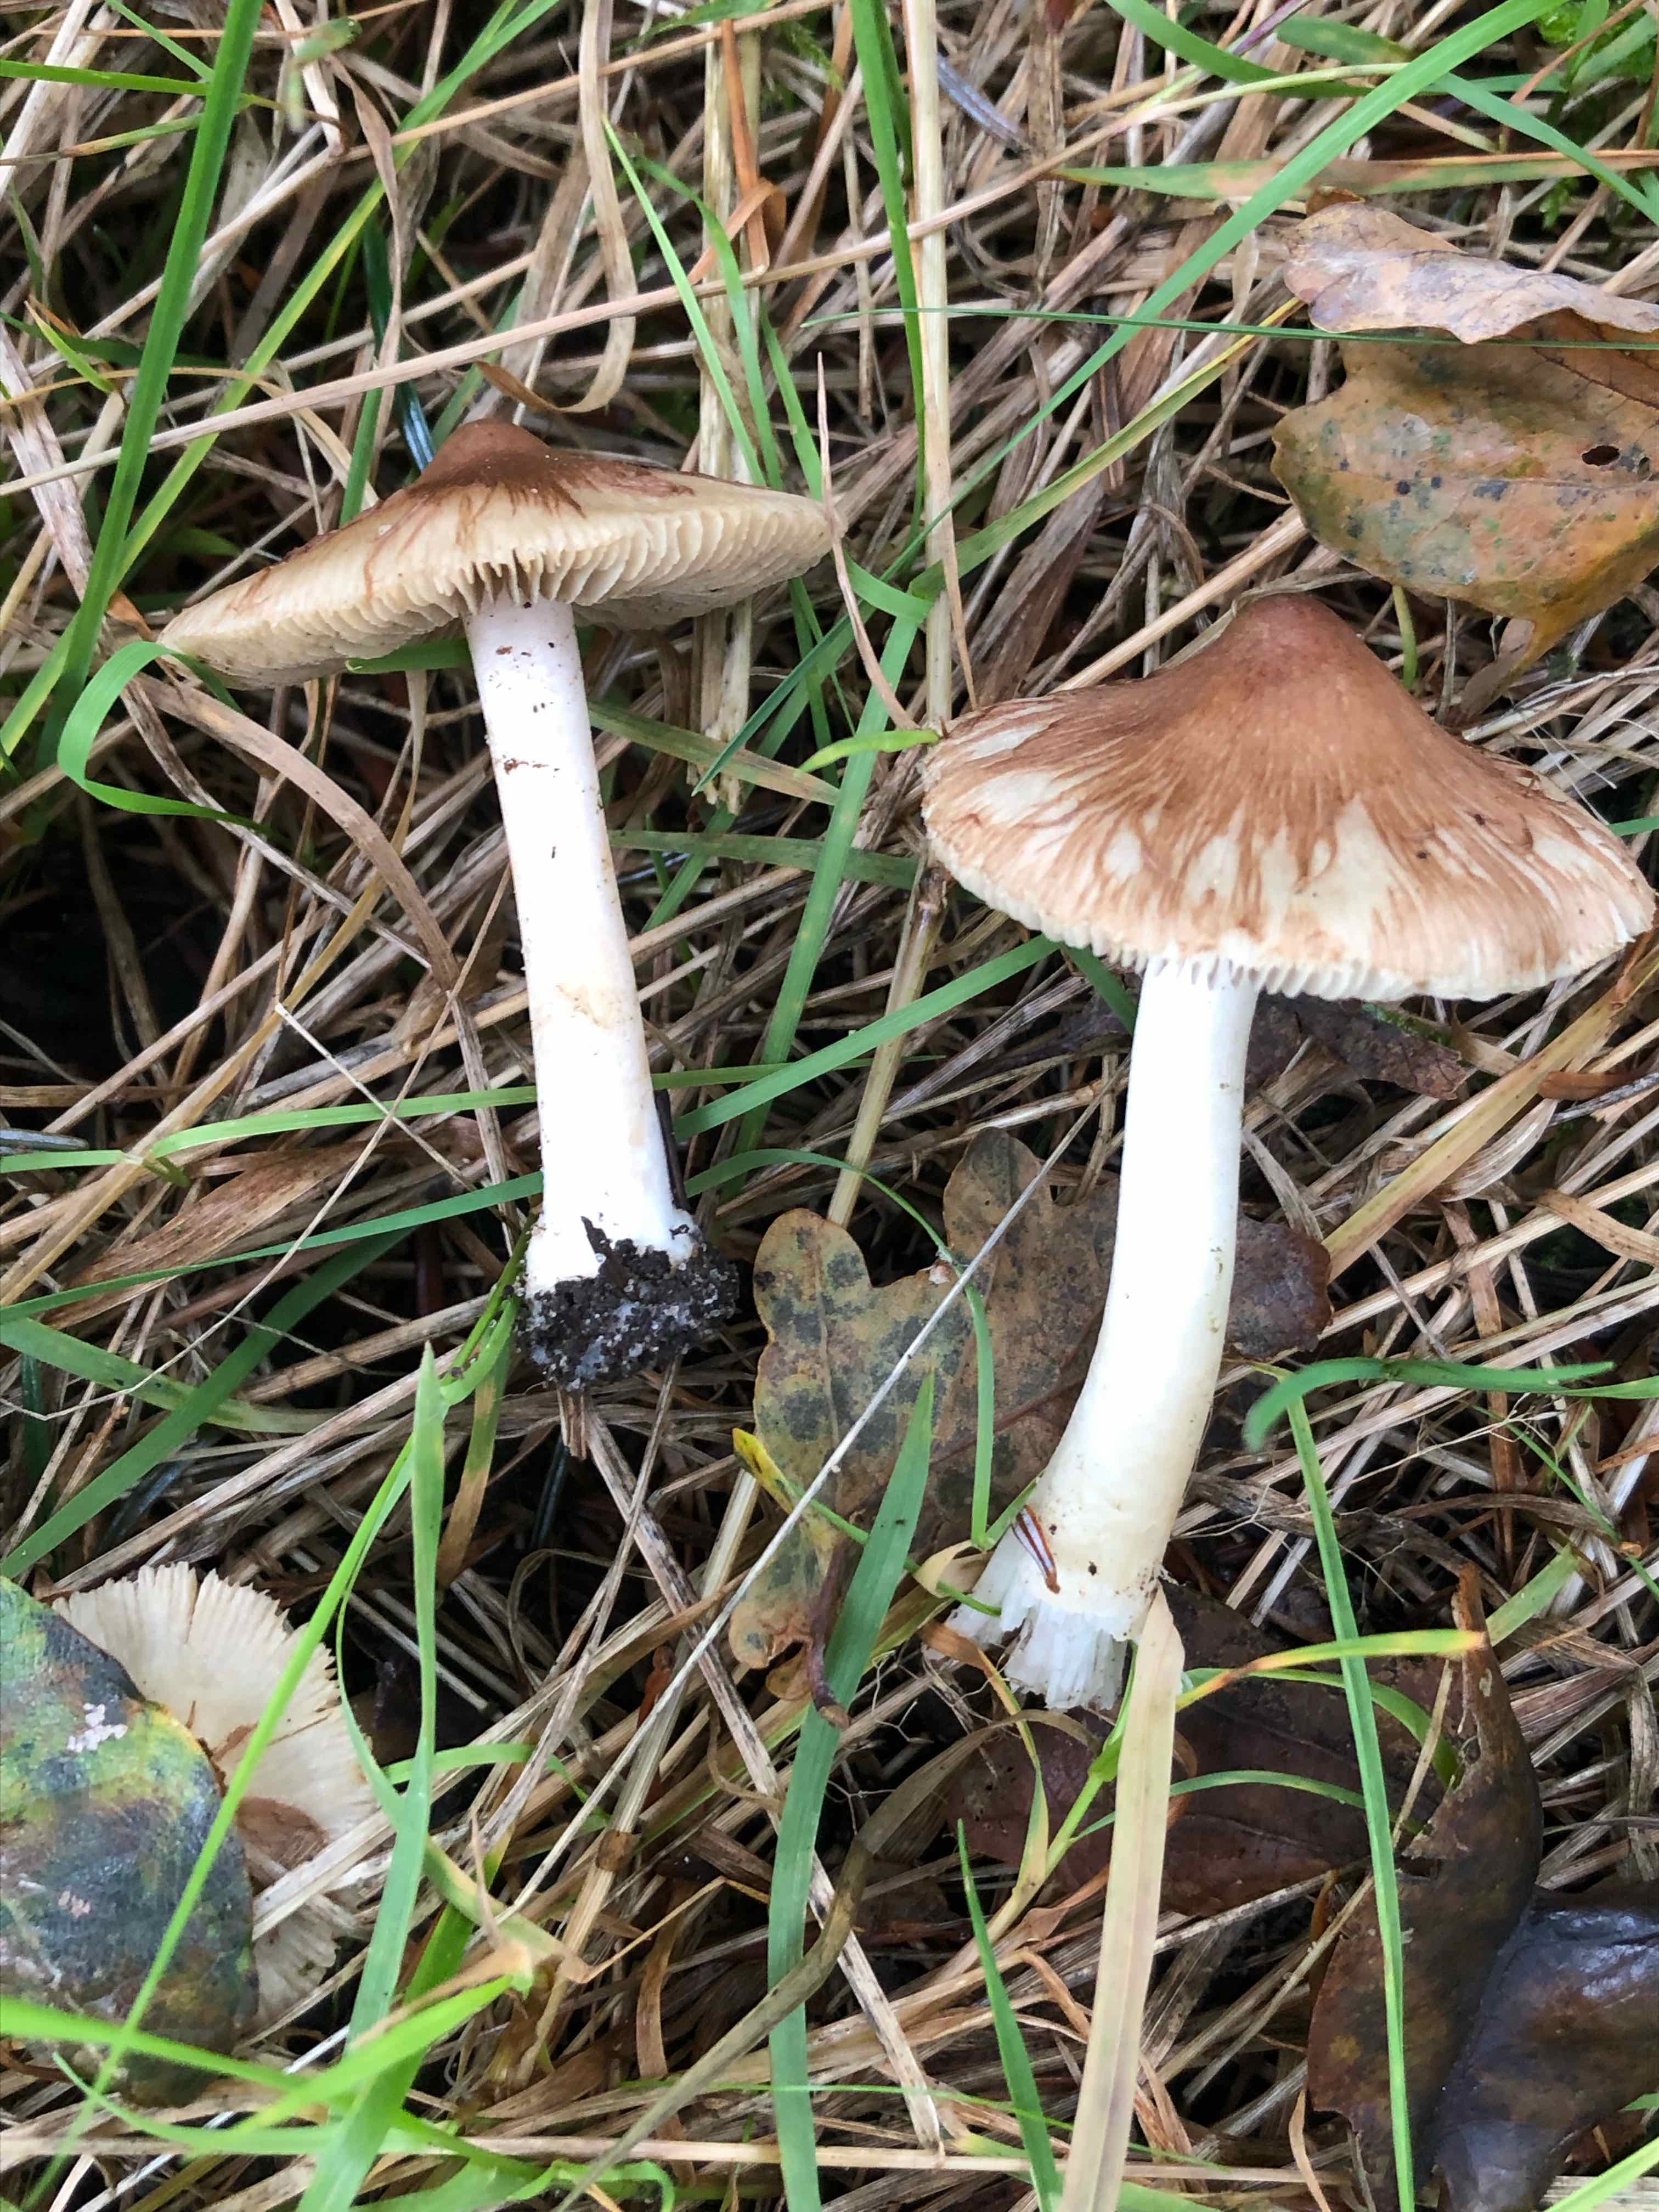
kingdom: Fungi
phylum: Basidiomycota
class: Agaricomycetes
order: Agaricales
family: Inocybaceae
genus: Inocybe
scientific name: Inocybe
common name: trævlhat
